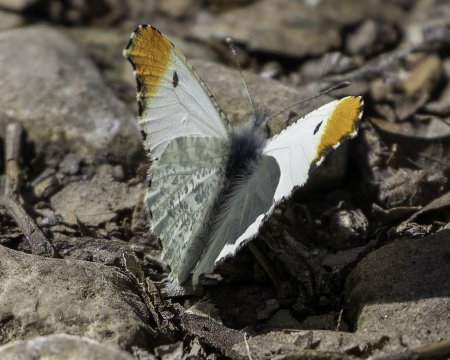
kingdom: Animalia
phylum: Arthropoda
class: Insecta
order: Lepidoptera
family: Pieridae
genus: Anthocharis
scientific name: Anthocharis midea
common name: Falcate Orangetip
